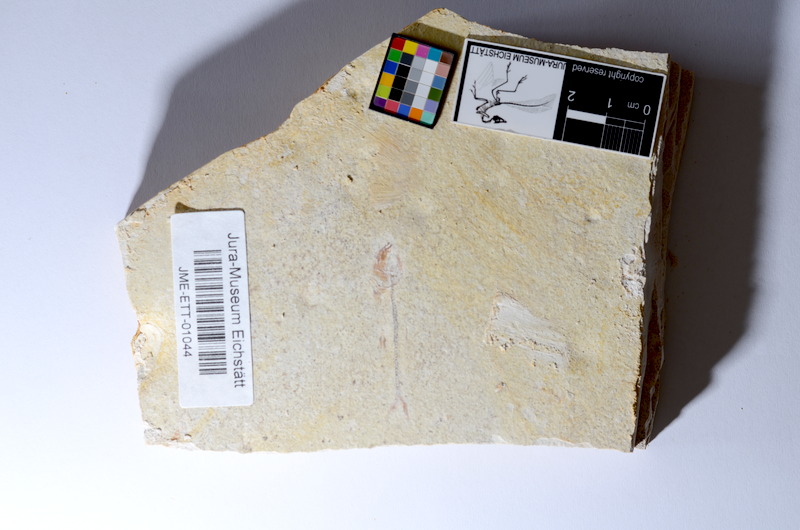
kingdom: Animalia
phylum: Chordata
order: Salmoniformes
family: Orthogonikleithridae
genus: Orthogonikleithrus
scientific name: Orthogonikleithrus hoelli
